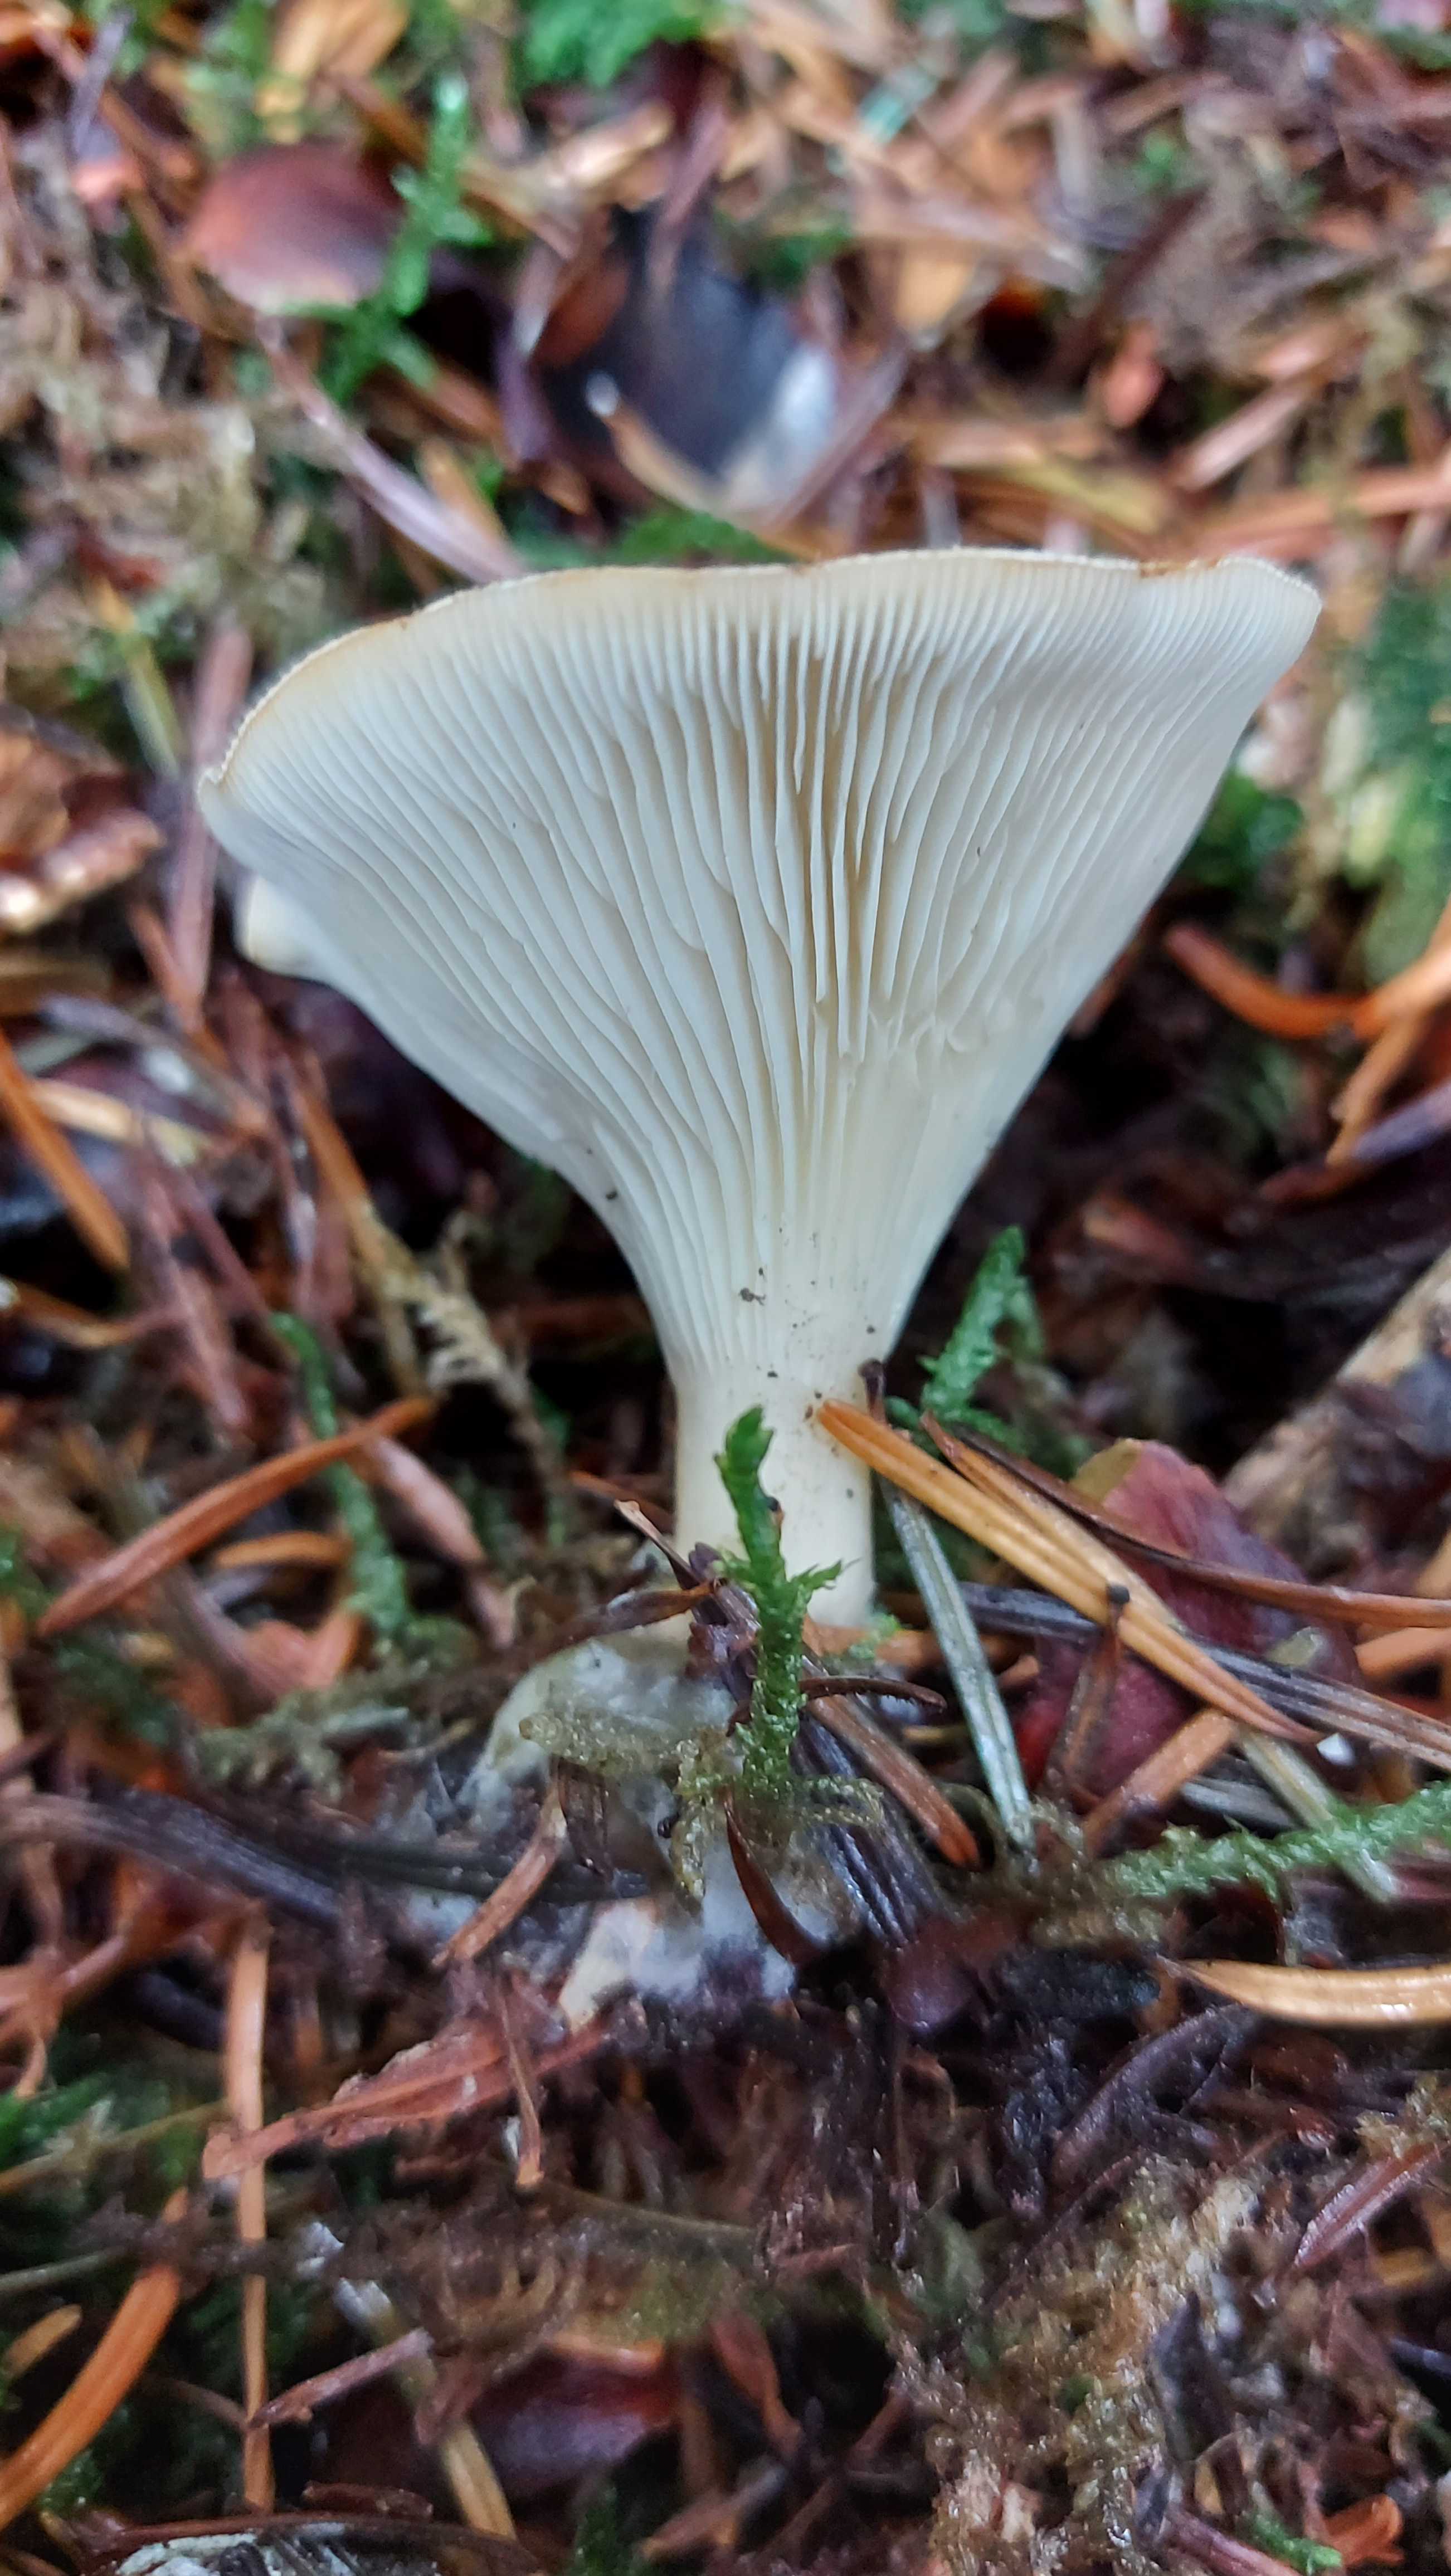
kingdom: Fungi
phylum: Basidiomycota
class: Agaricomycetes
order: Agaricales
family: Tricholomataceae
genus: Infundibulicybe
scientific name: Infundibulicybe gibba
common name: almindelig tragthat
